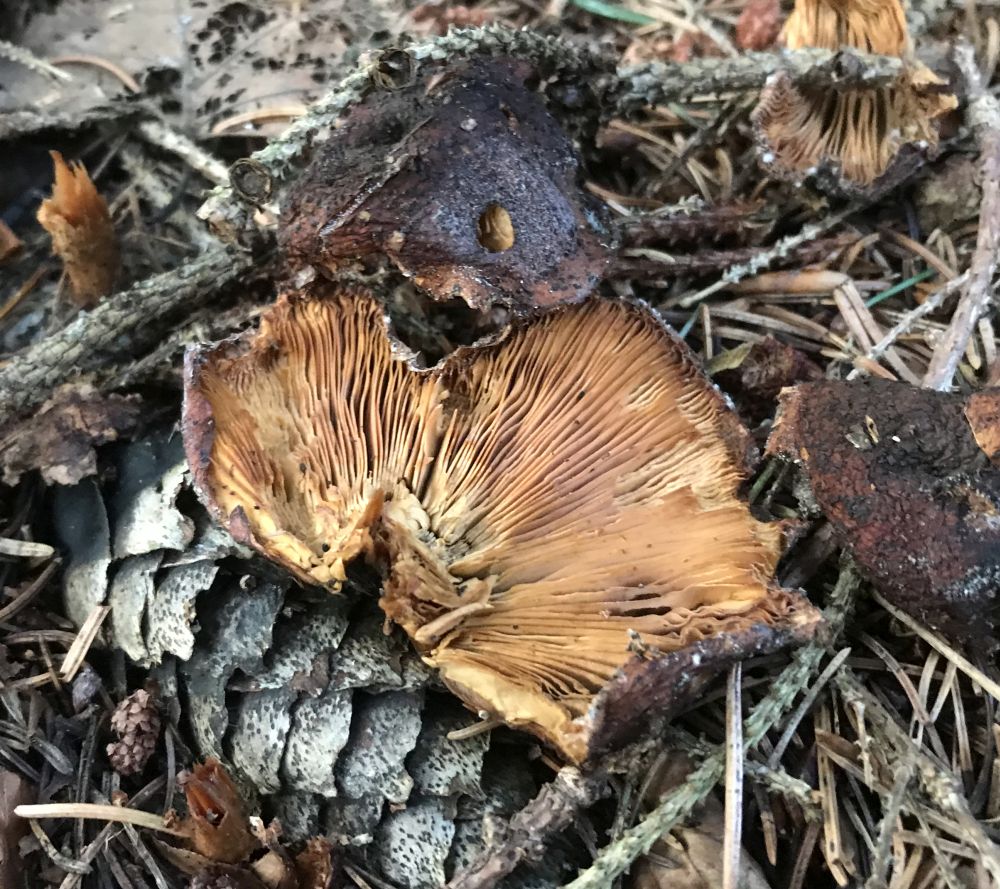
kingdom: Plantae
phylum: Bryophyta
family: Agaricomycetidae
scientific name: Agaricomycetidae
